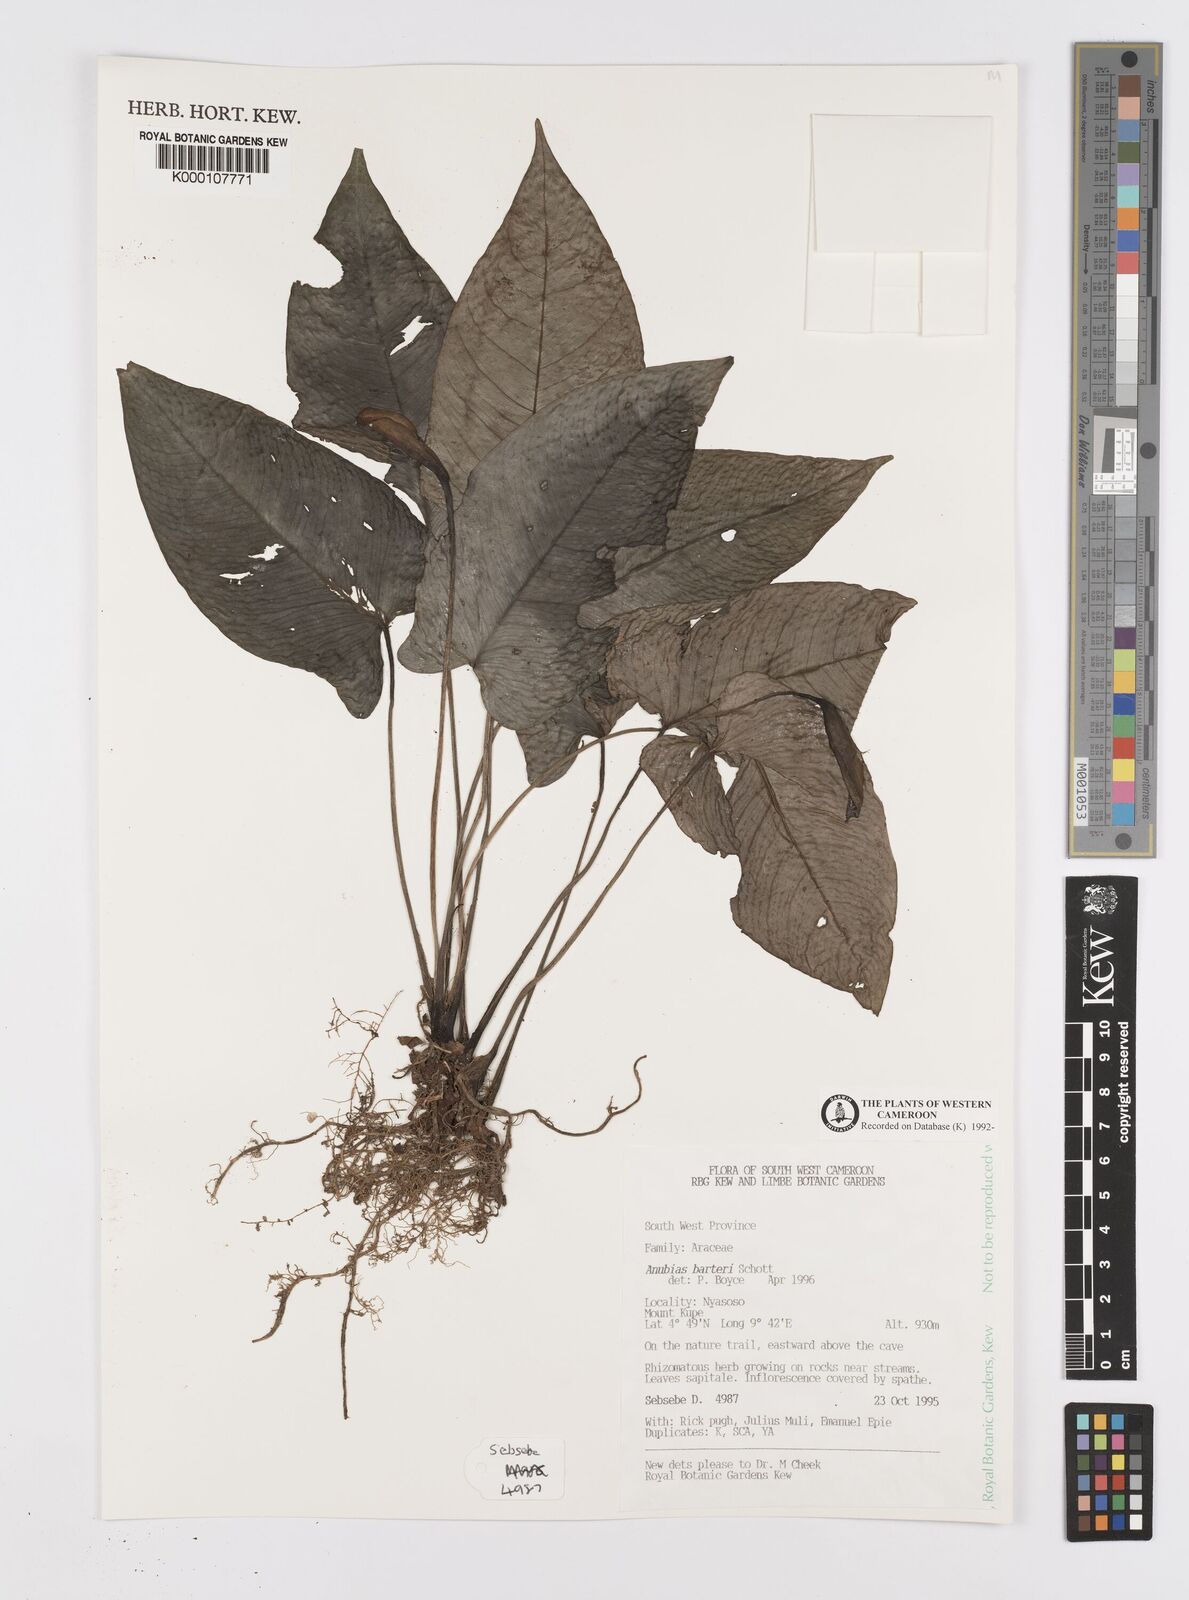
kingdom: Plantae
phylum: Tracheophyta
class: Liliopsida
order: Alismatales
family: Araceae
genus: Anubias
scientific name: Anubias barteri
